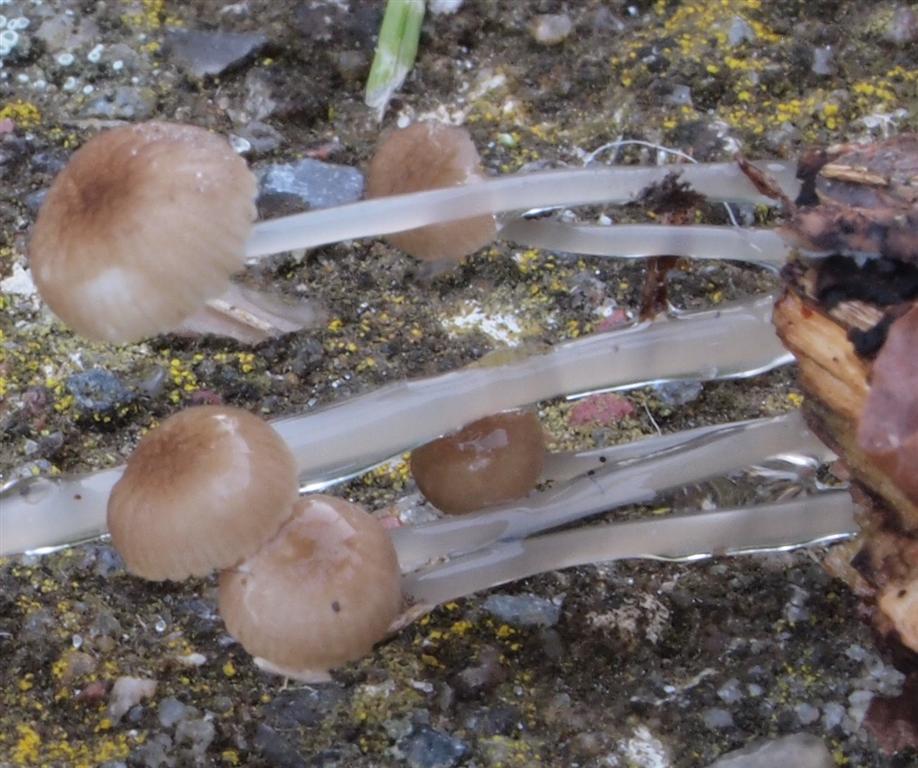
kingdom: Fungi
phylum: Basidiomycota
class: Agaricomycetes
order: Agaricales
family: Mycenaceae
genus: Roridomyces
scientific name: Roridomyces roridus
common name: slimfod
